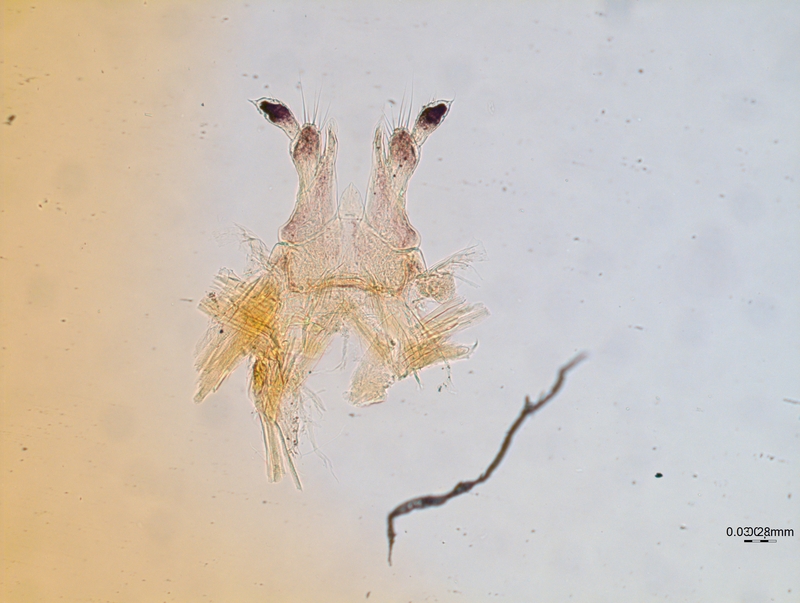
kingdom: Animalia
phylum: Arthropoda
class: Diplopoda
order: Chordeumatida
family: Chordeumatidae
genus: Chordeuma
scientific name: Chordeuma sylvestre
